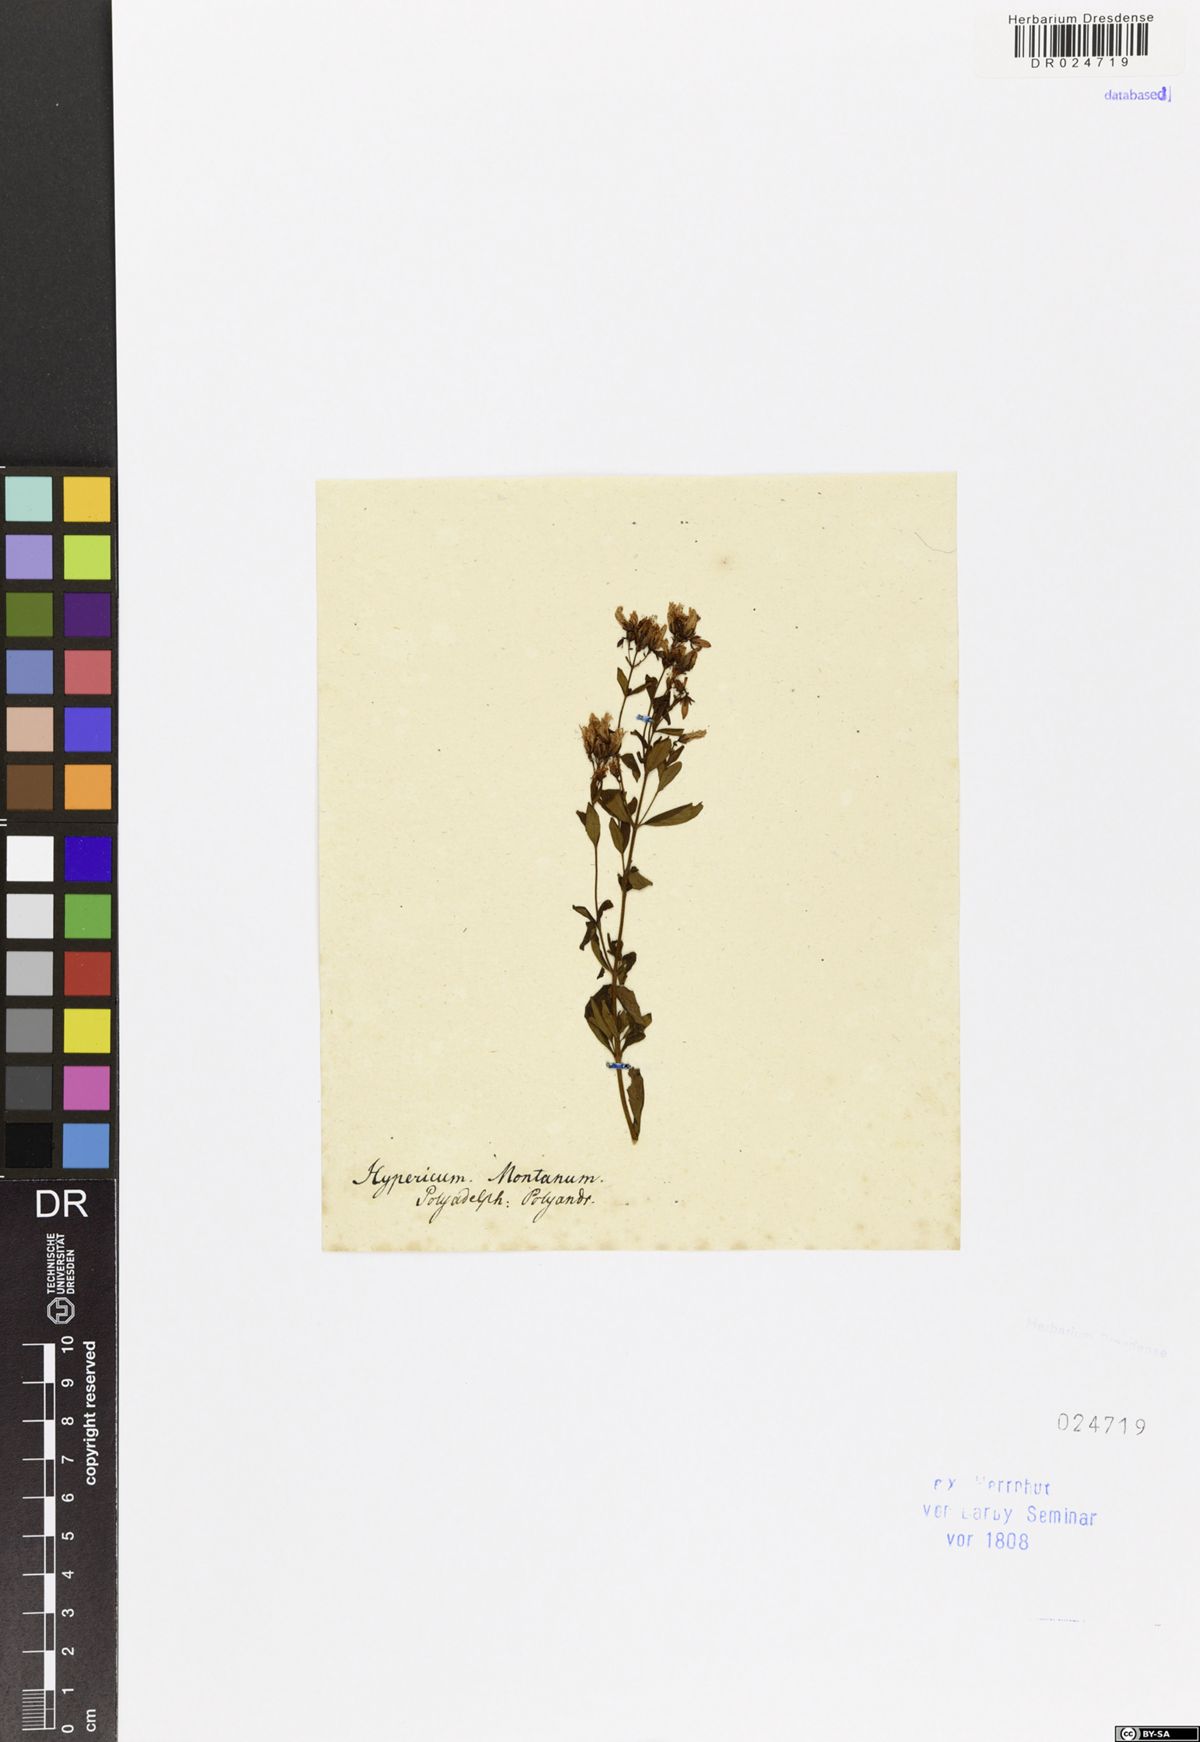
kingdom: Plantae
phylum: Tracheophyta
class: Magnoliopsida
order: Malpighiales
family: Hypericaceae
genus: Hypericum
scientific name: Hypericum hirsutum
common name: Hairy st. john's-wort
